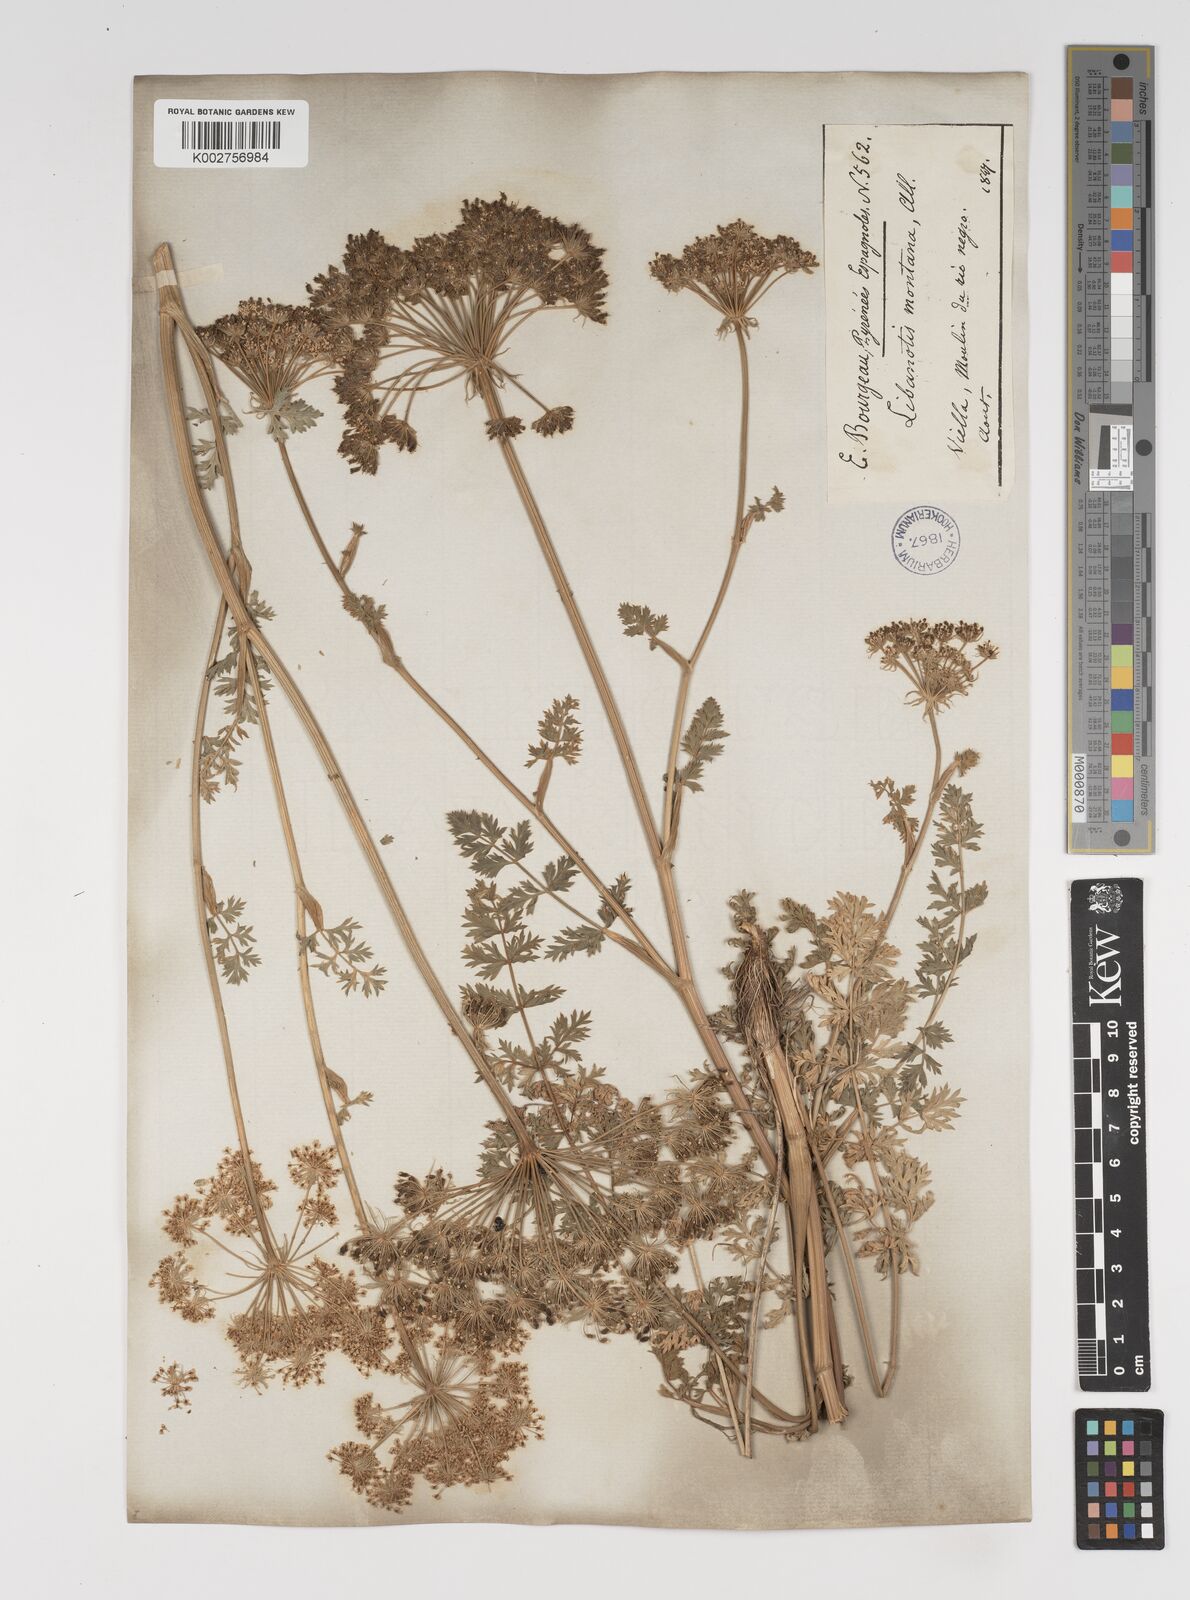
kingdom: Plantae
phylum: Tracheophyta
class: Magnoliopsida
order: Apiales
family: Apiaceae
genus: Seseli
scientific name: Seseli libanotis
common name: Mooncarrot
